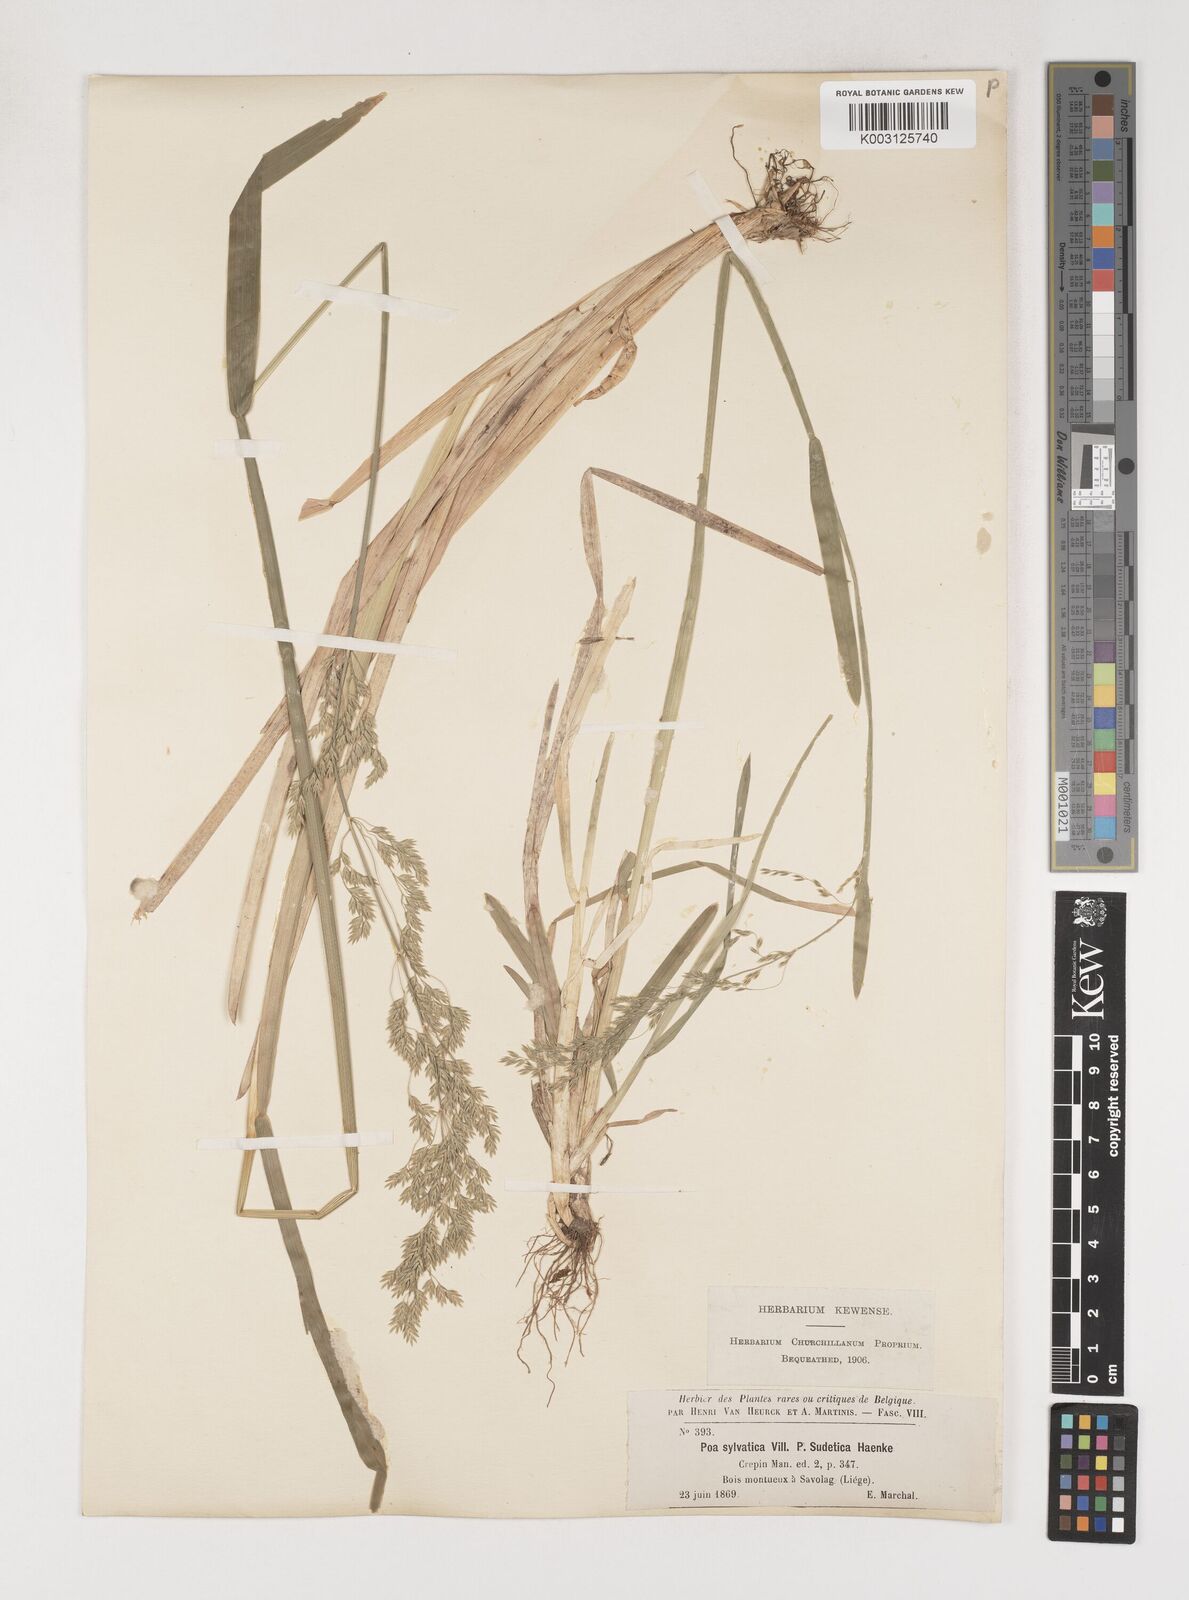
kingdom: Plantae
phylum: Tracheophyta
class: Liliopsida
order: Poales
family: Poaceae
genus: Poa
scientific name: Poa chaixii
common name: Broad-leaved meadow-grass
